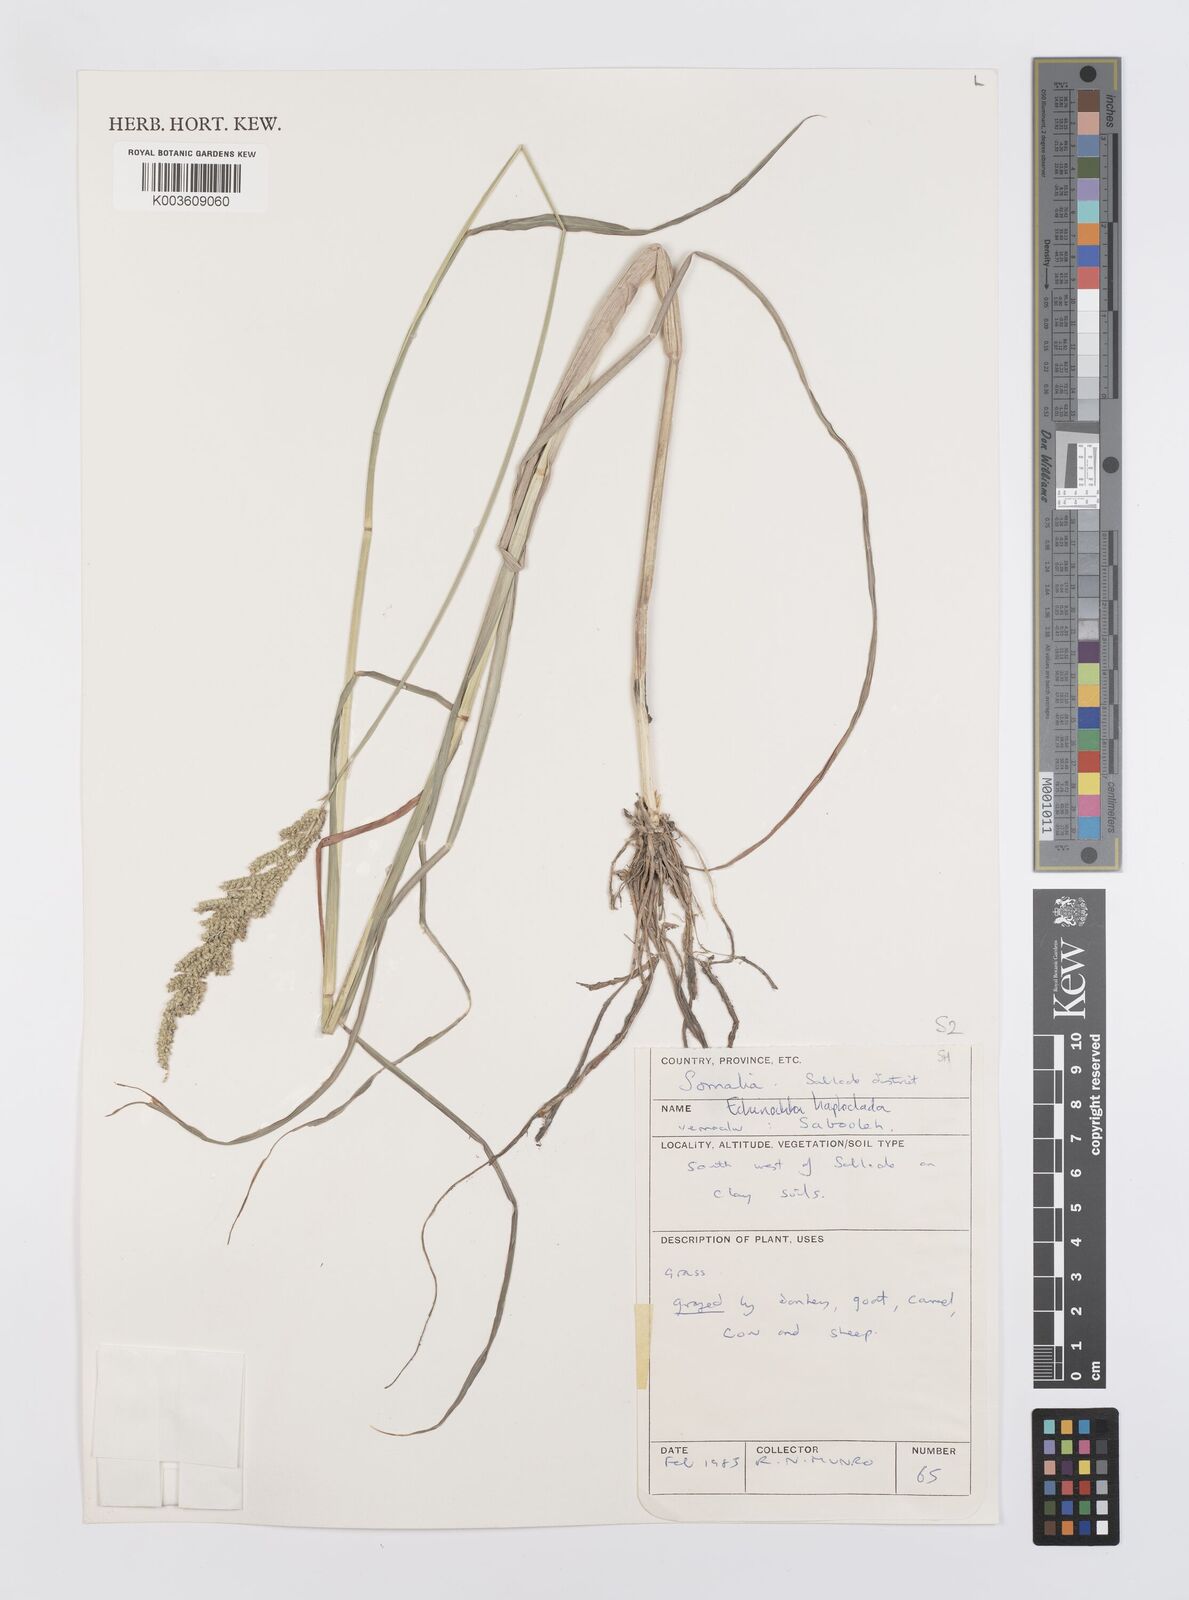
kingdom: Plantae
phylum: Tracheophyta
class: Liliopsida
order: Poales
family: Poaceae
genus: Echinochloa
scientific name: Echinochloa haploclada
